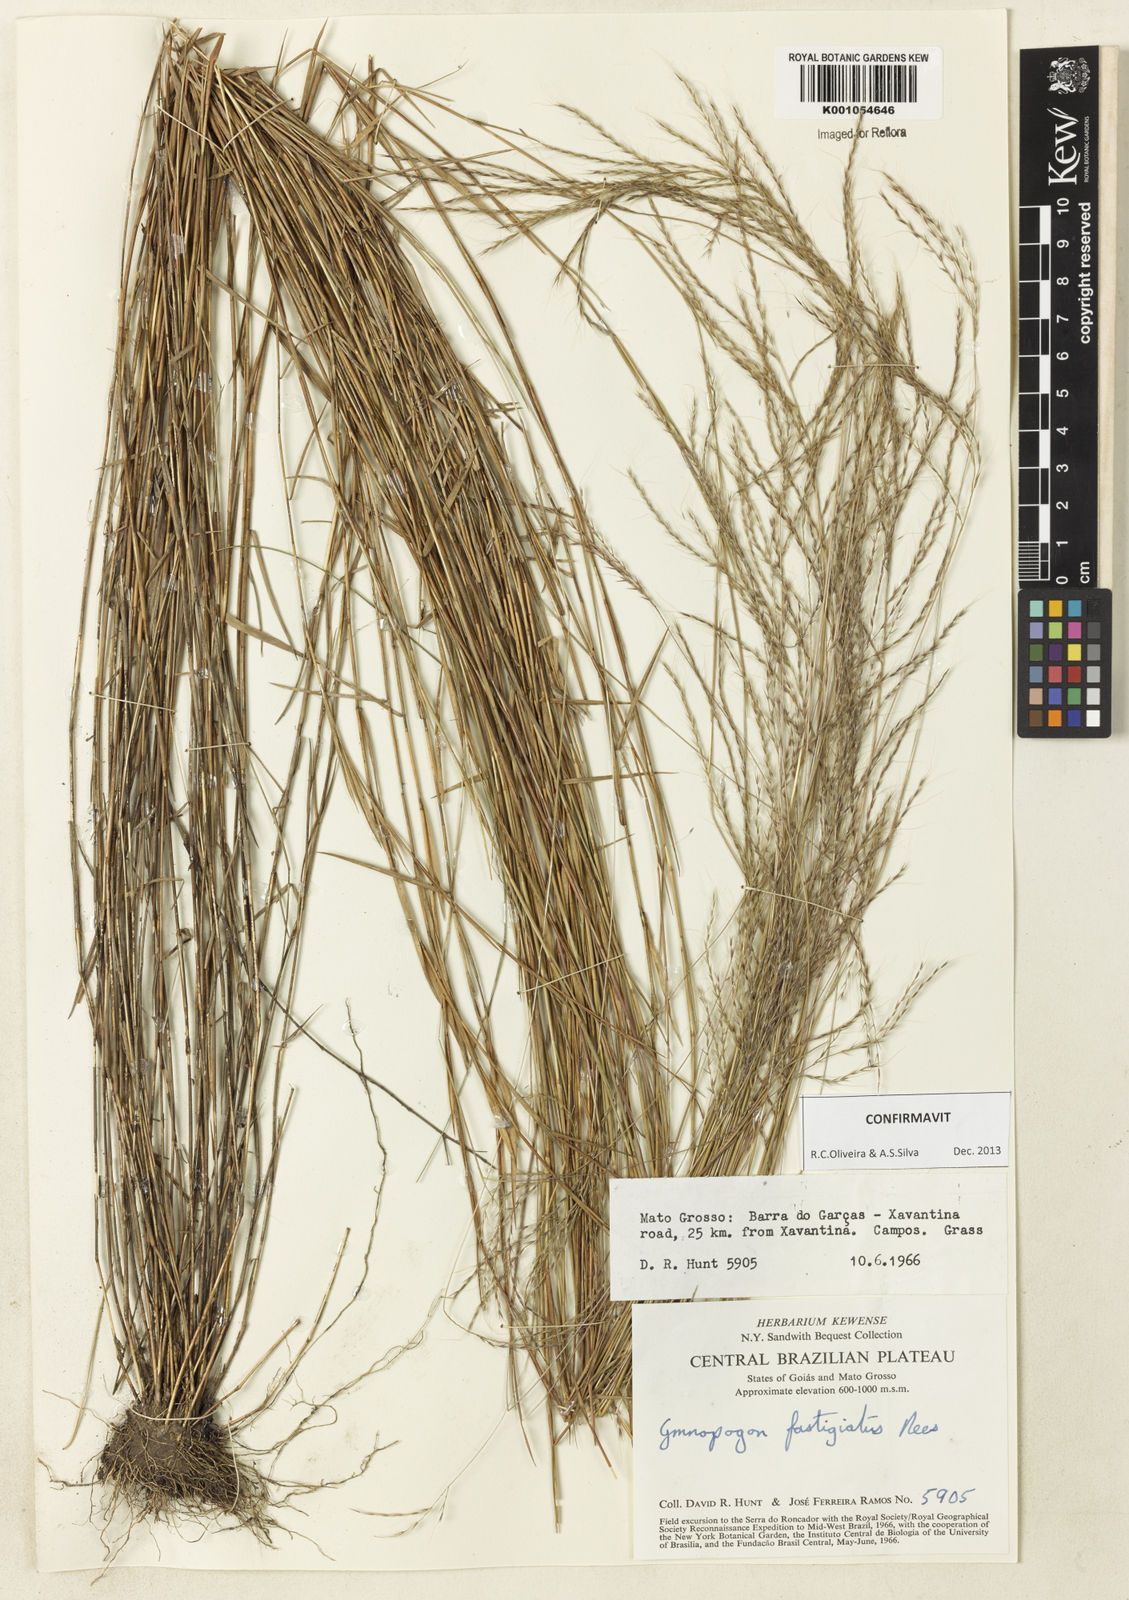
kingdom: Plantae
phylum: Tracheophyta
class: Liliopsida
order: Poales
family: Poaceae
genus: Gymnopogon
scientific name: Gymnopogon fastigiatus
